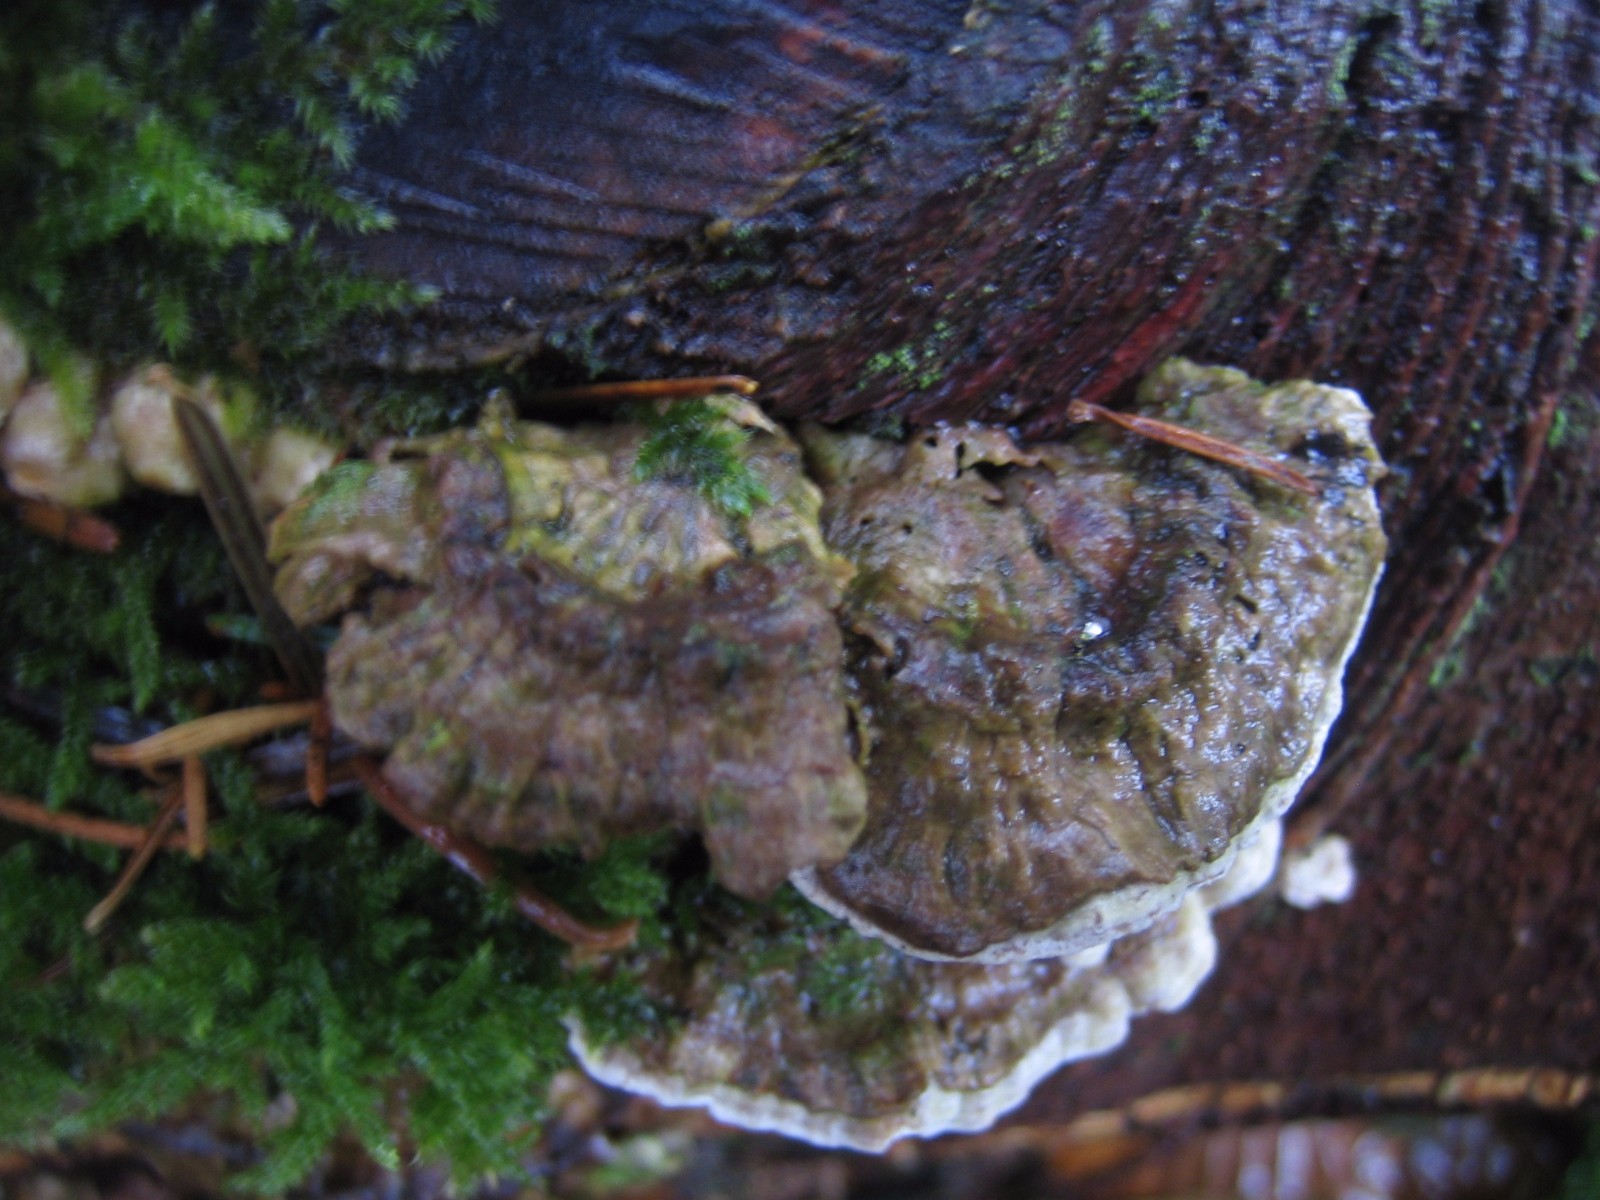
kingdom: Fungi
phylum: Basidiomycota
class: Agaricomycetes
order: Polyporales
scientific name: Polyporales
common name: poresvampordenen
